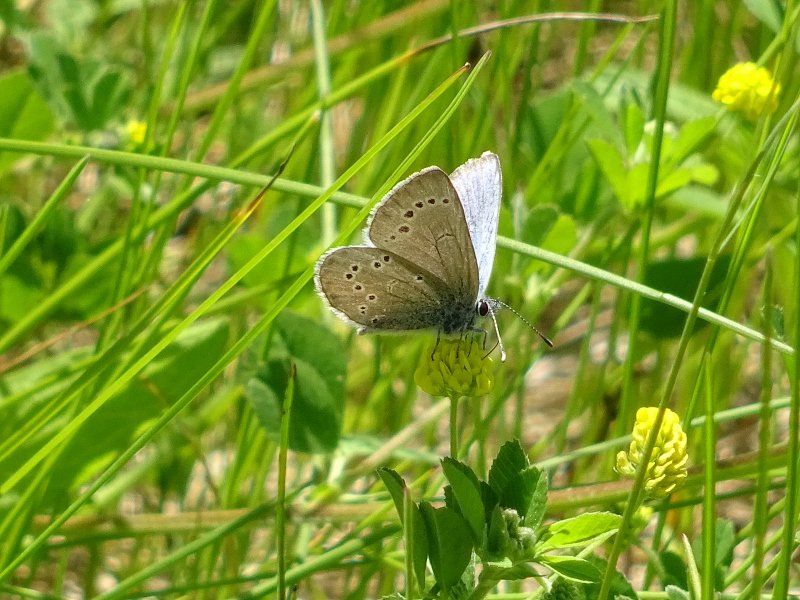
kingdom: Animalia
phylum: Arthropoda
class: Insecta
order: Lepidoptera
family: Lycaenidae
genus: Glaucopsyche
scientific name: Glaucopsyche lygdamus
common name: Silvery Blue
